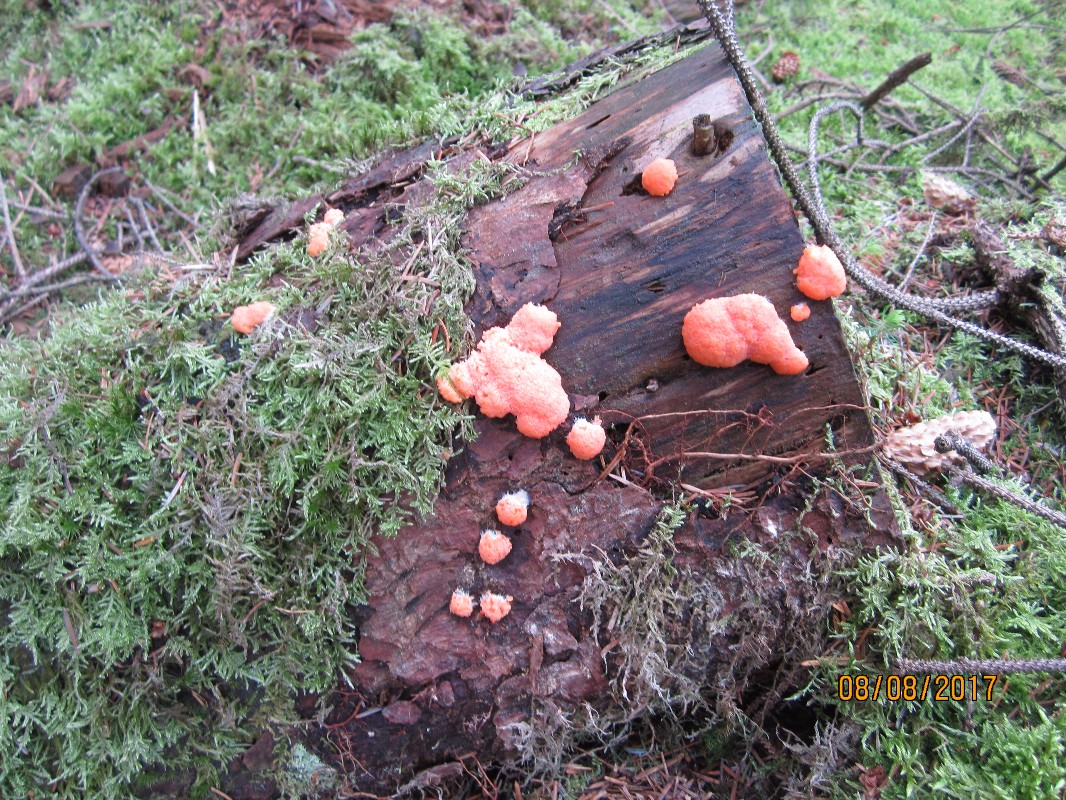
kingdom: Protozoa
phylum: Mycetozoa
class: Myxomycetes
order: Cribrariales
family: Tubiferaceae
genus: Tubifera
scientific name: Tubifera ferruginosa
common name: kanel-støvrør
